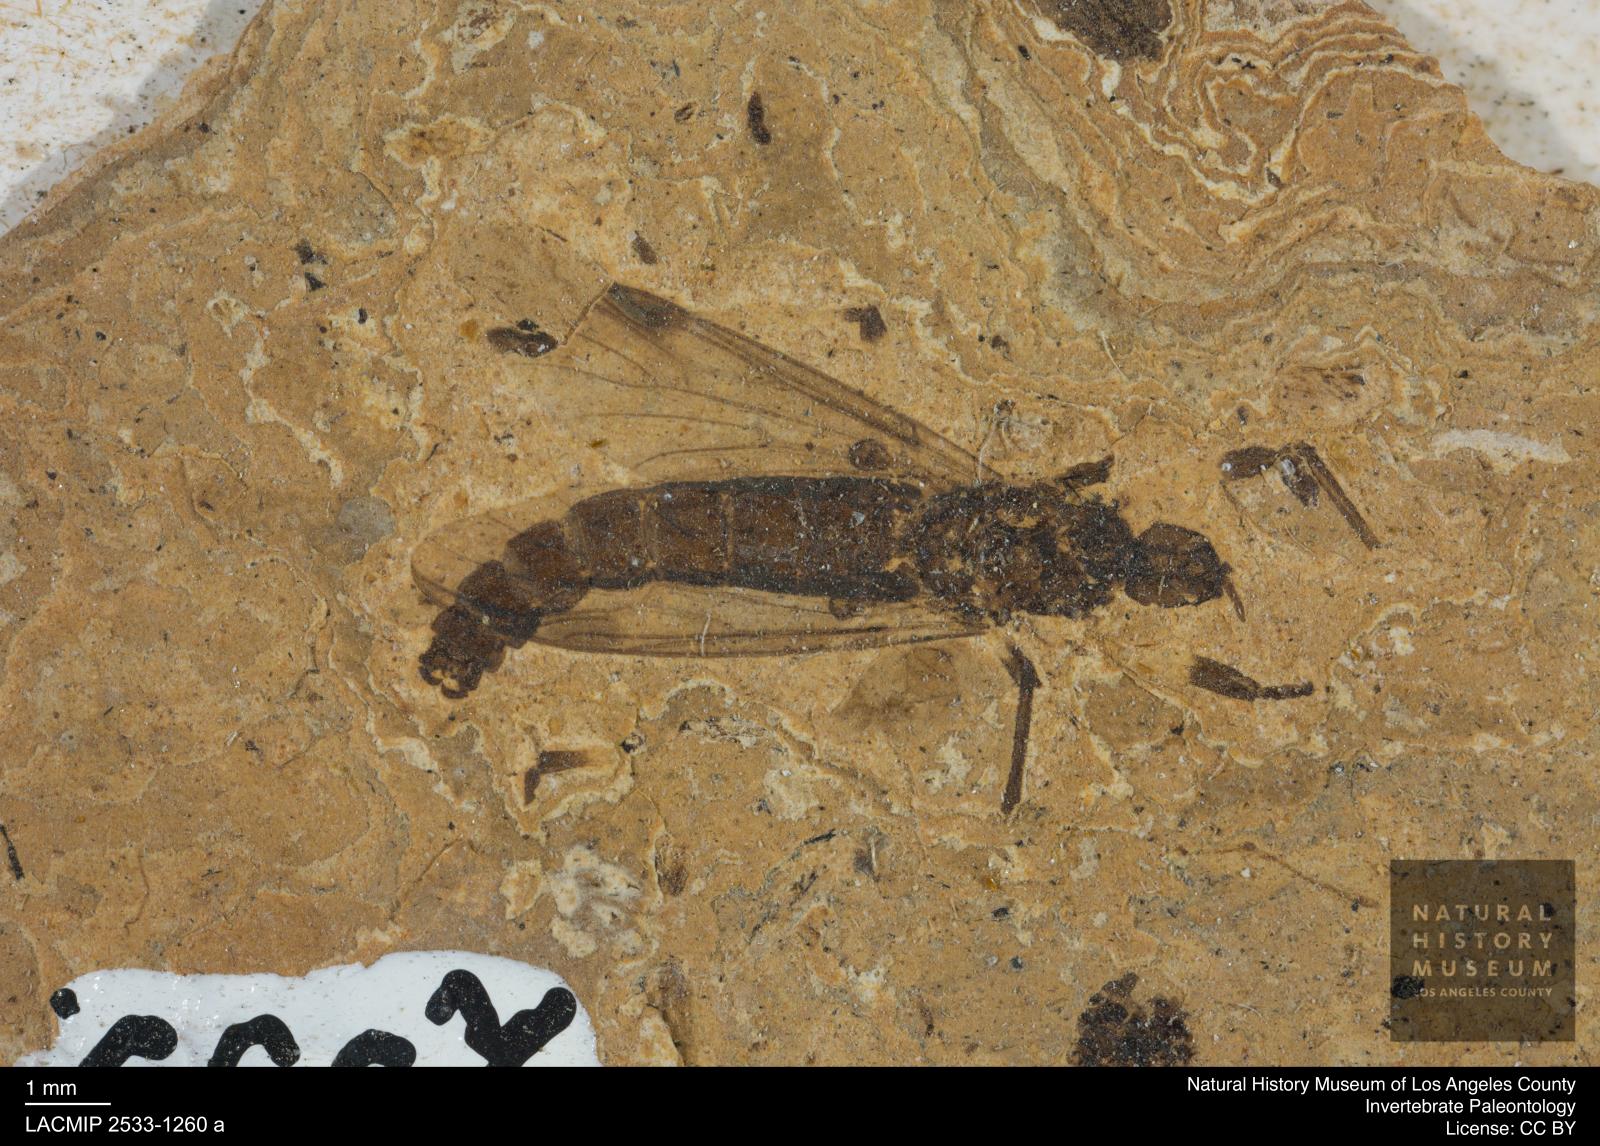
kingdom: Animalia
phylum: Arthropoda
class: Insecta
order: Diptera
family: Bibionidae
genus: Plecia
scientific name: Plecia
